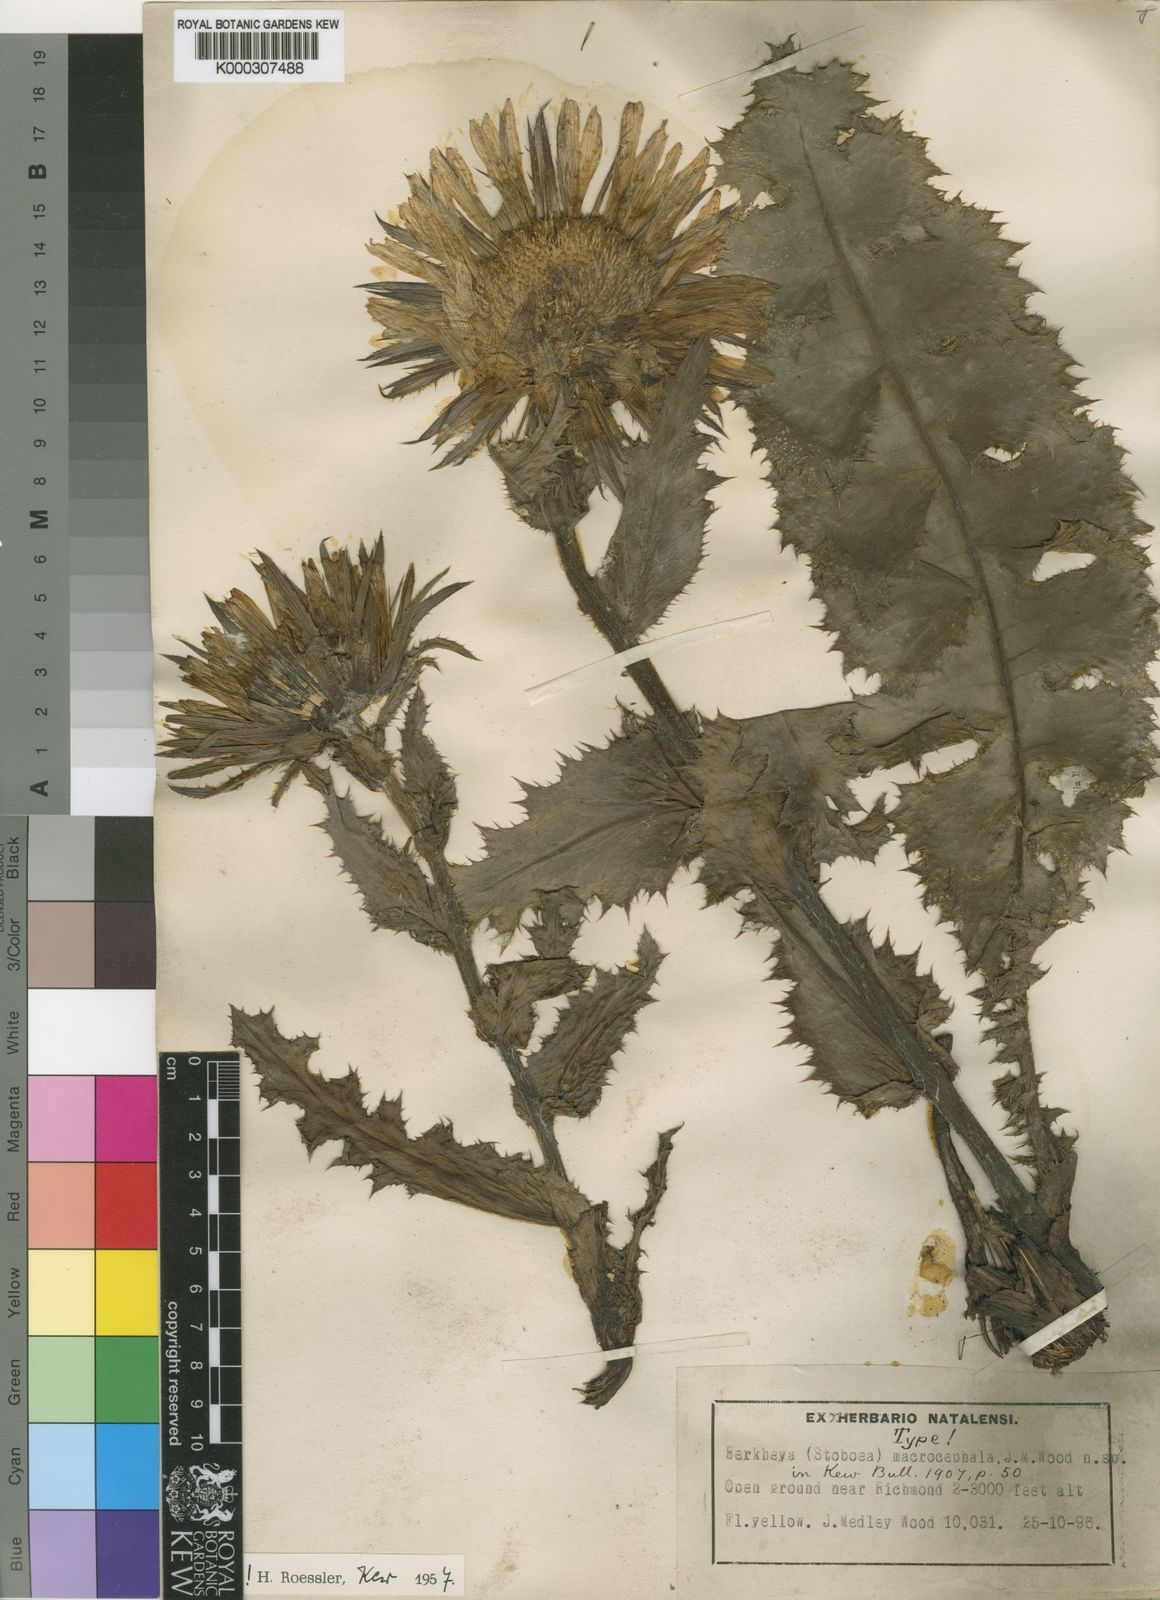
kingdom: Plantae
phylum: Tracheophyta
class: Magnoliopsida
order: Asterales
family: Asteraceae
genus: Berkheya
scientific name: Berkheya macrocephala
